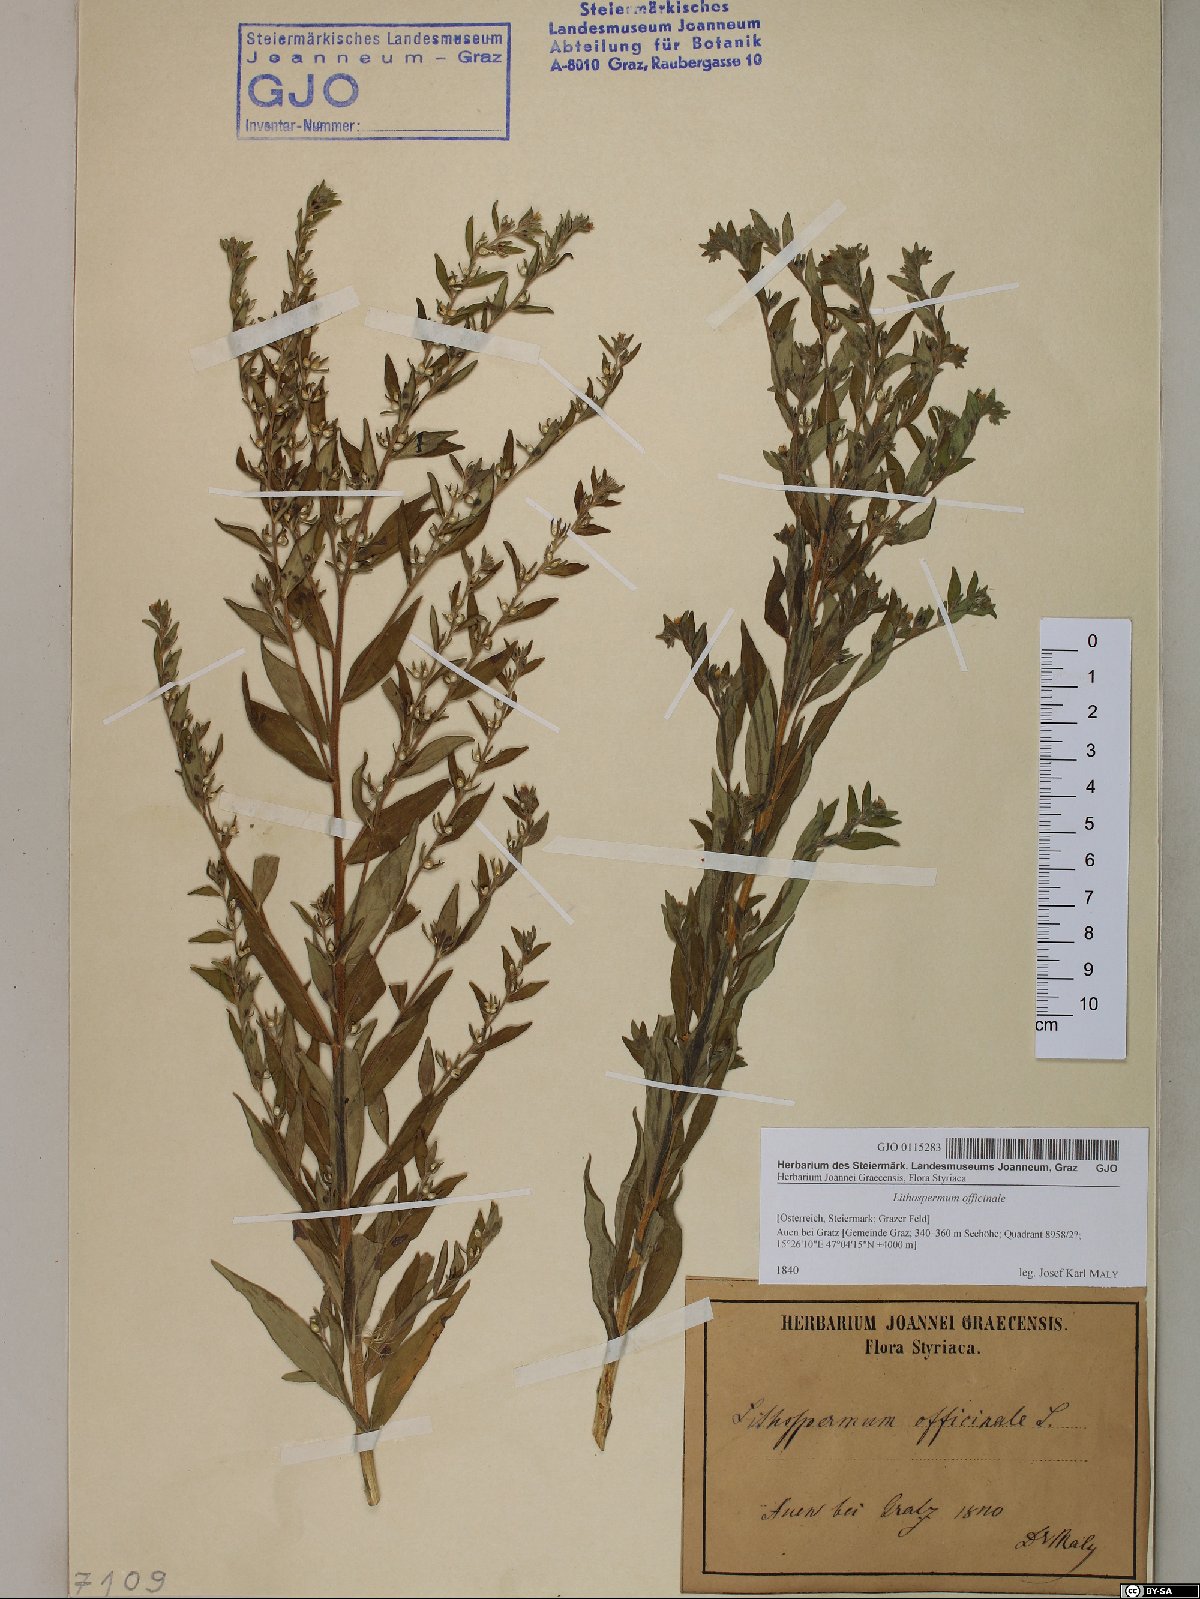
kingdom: Plantae
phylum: Tracheophyta
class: Magnoliopsida
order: Boraginales
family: Boraginaceae
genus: Lithospermum
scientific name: Lithospermum officinale
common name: Common gromwell
